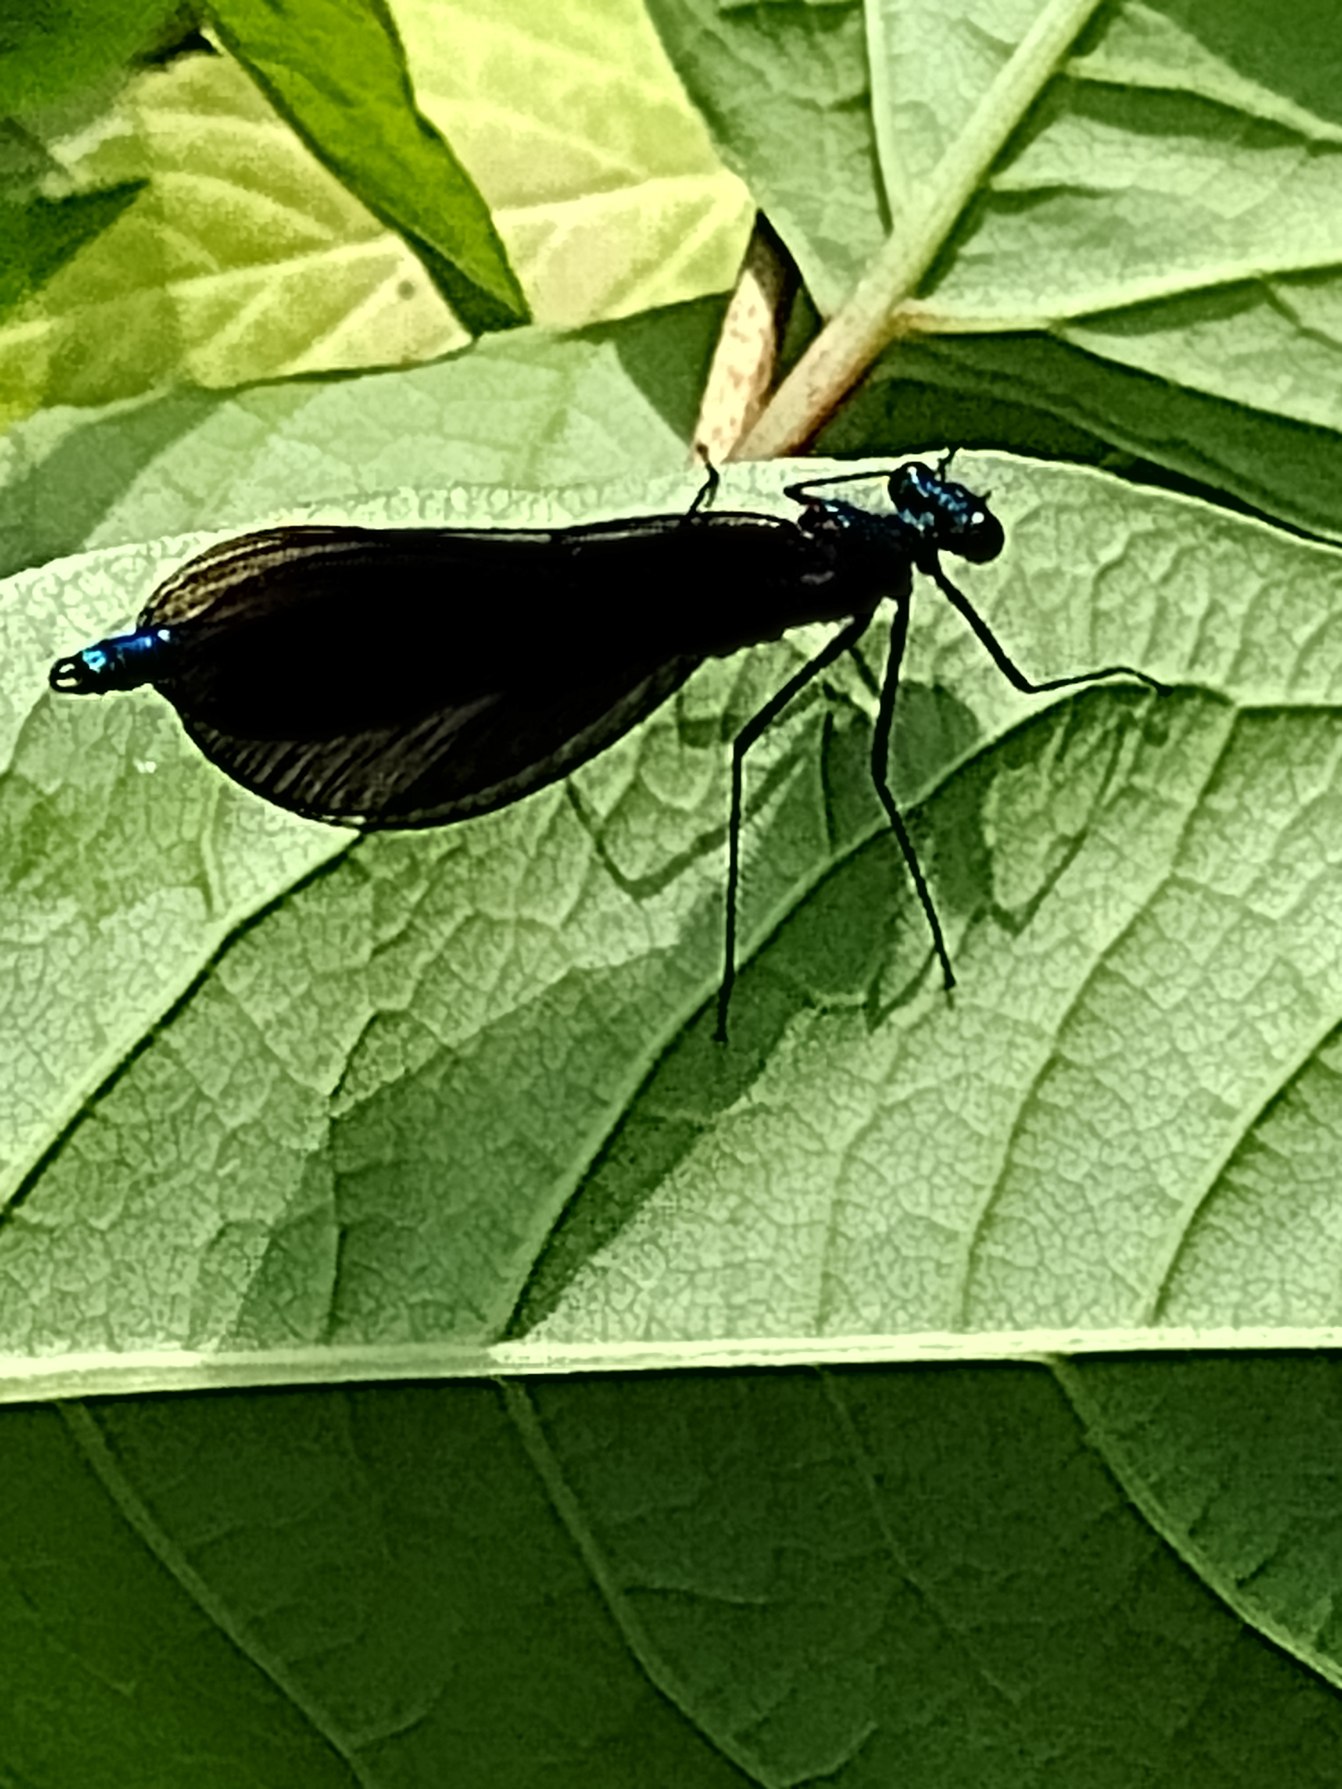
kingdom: Animalia
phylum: Arthropoda
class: Insecta
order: Odonata
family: Calopterygidae
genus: Calopteryx
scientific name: Calopteryx virgo
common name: Blåvinget pragtvandnymfe
